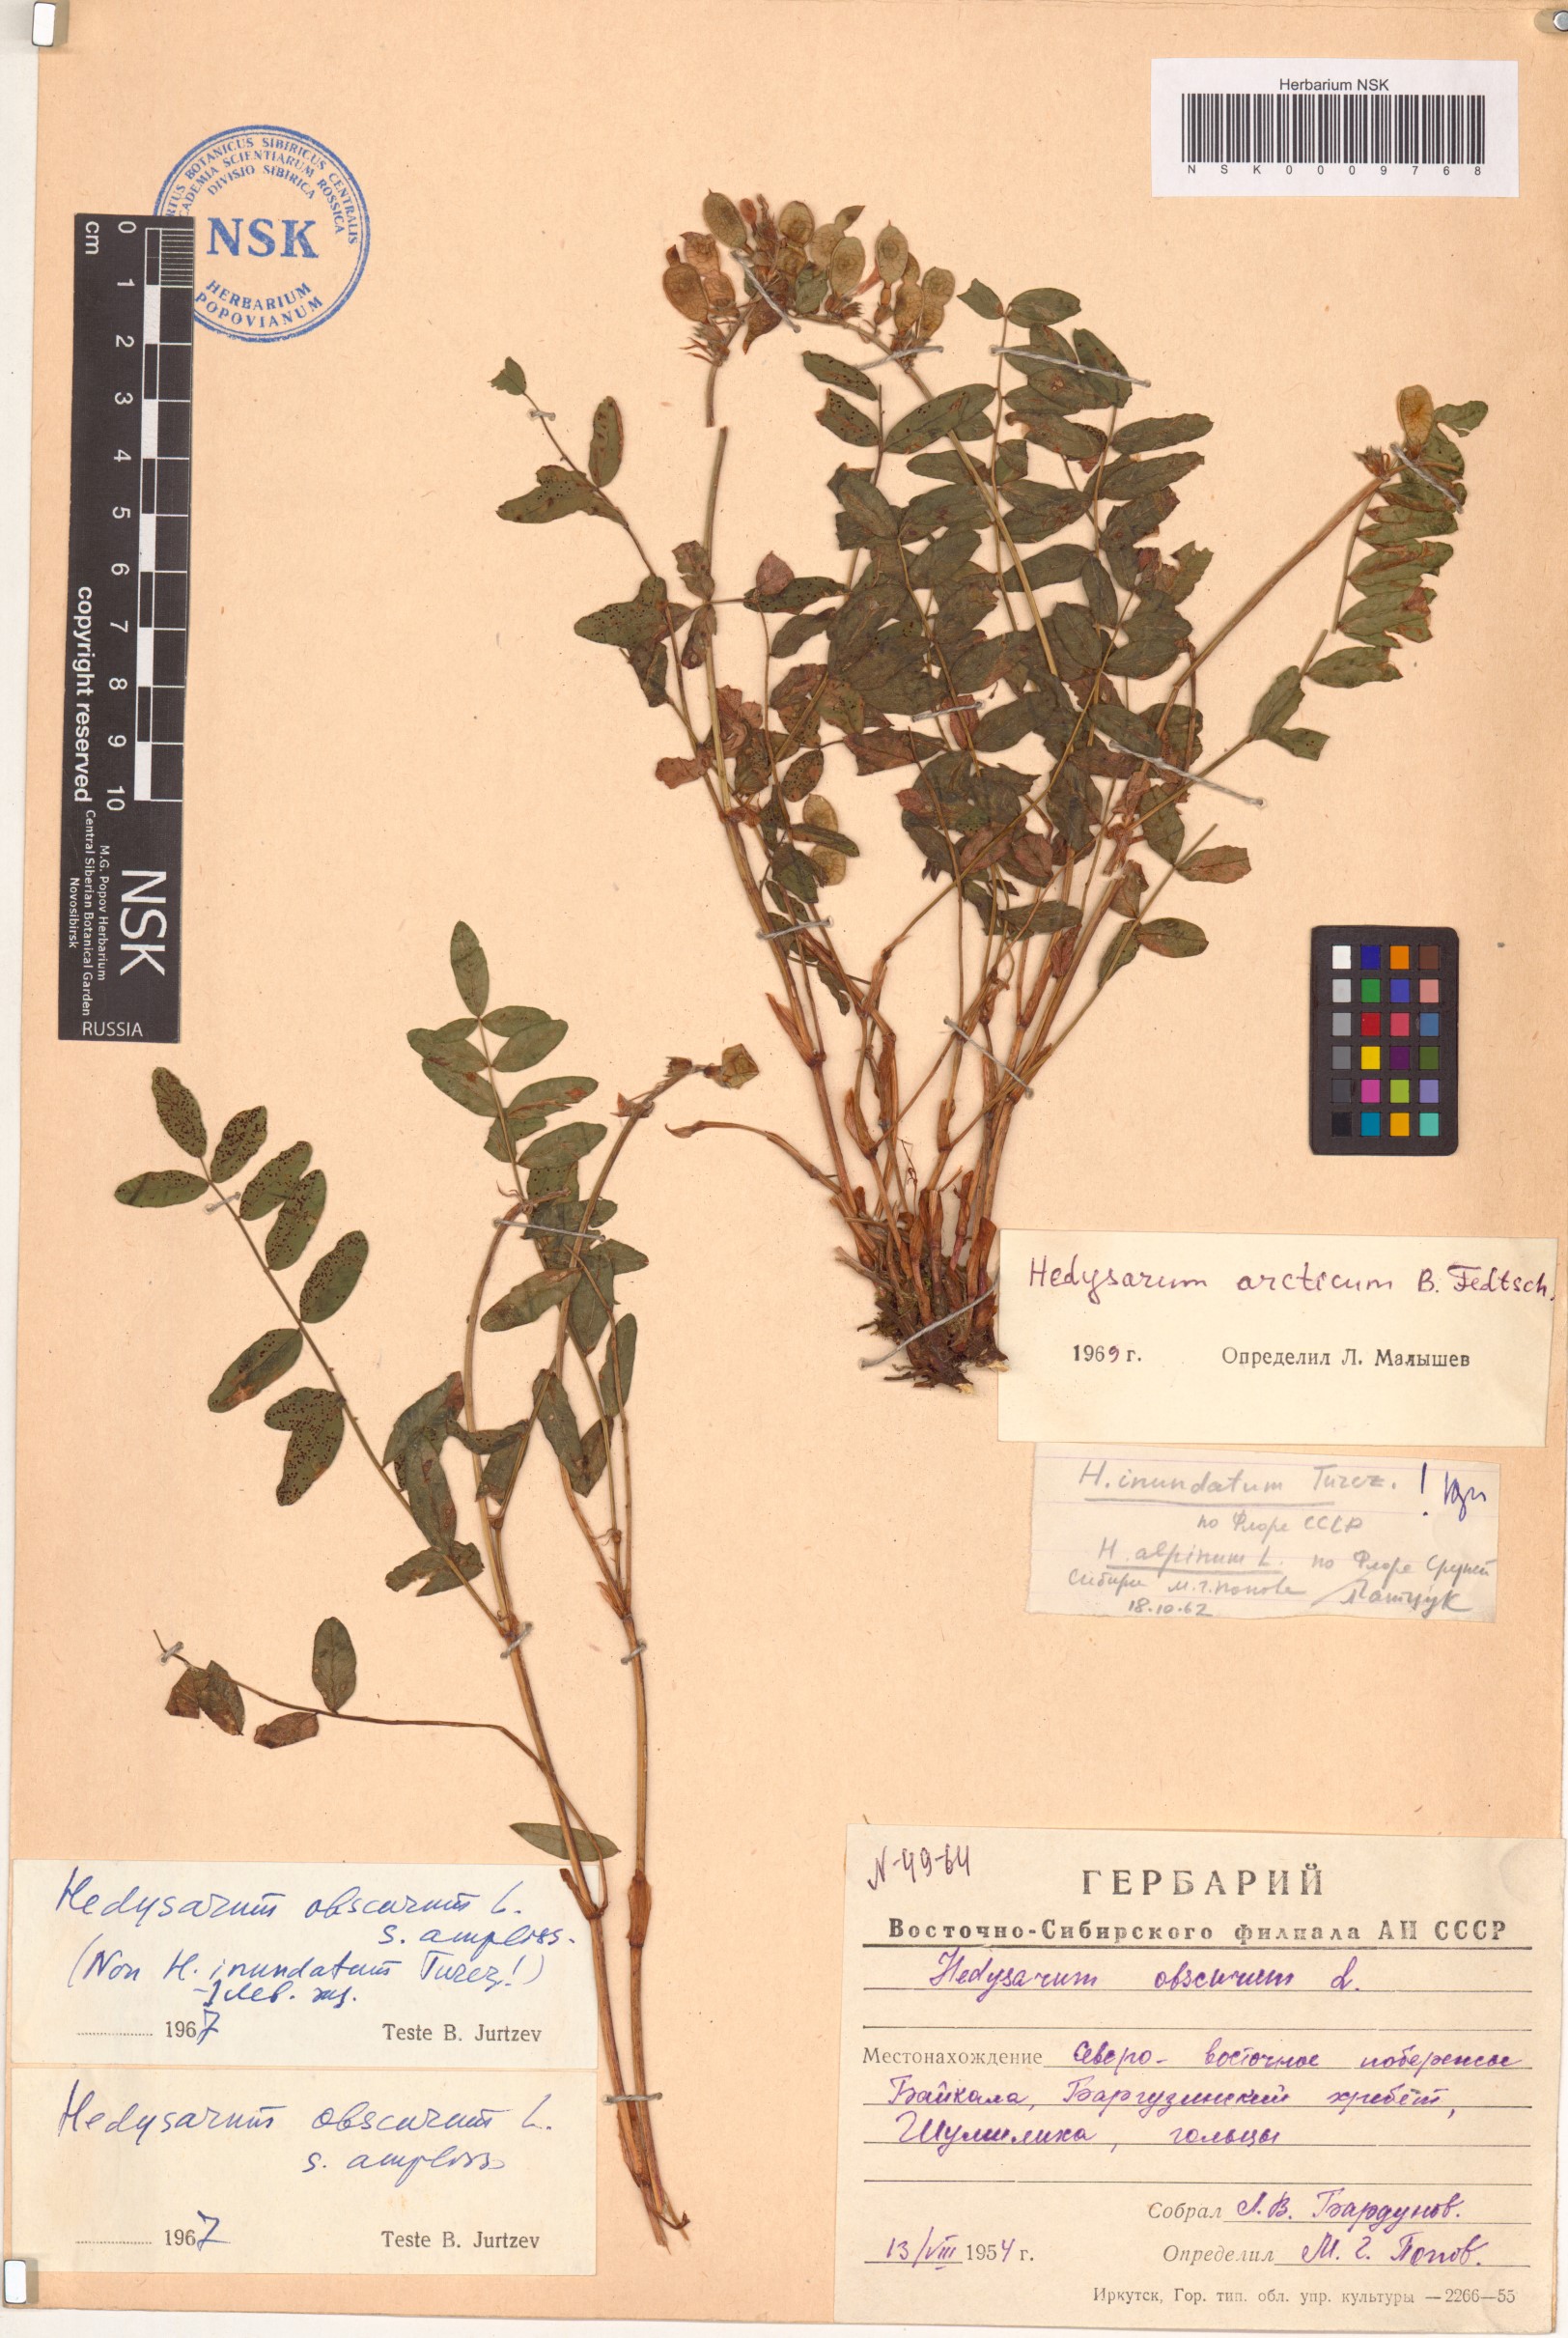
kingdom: Plantae
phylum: Tracheophyta
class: Magnoliopsida
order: Fabales
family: Fabaceae
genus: Hedysarum
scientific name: Hedysarum hedysaroides
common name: Alpine french-honeysuckle
